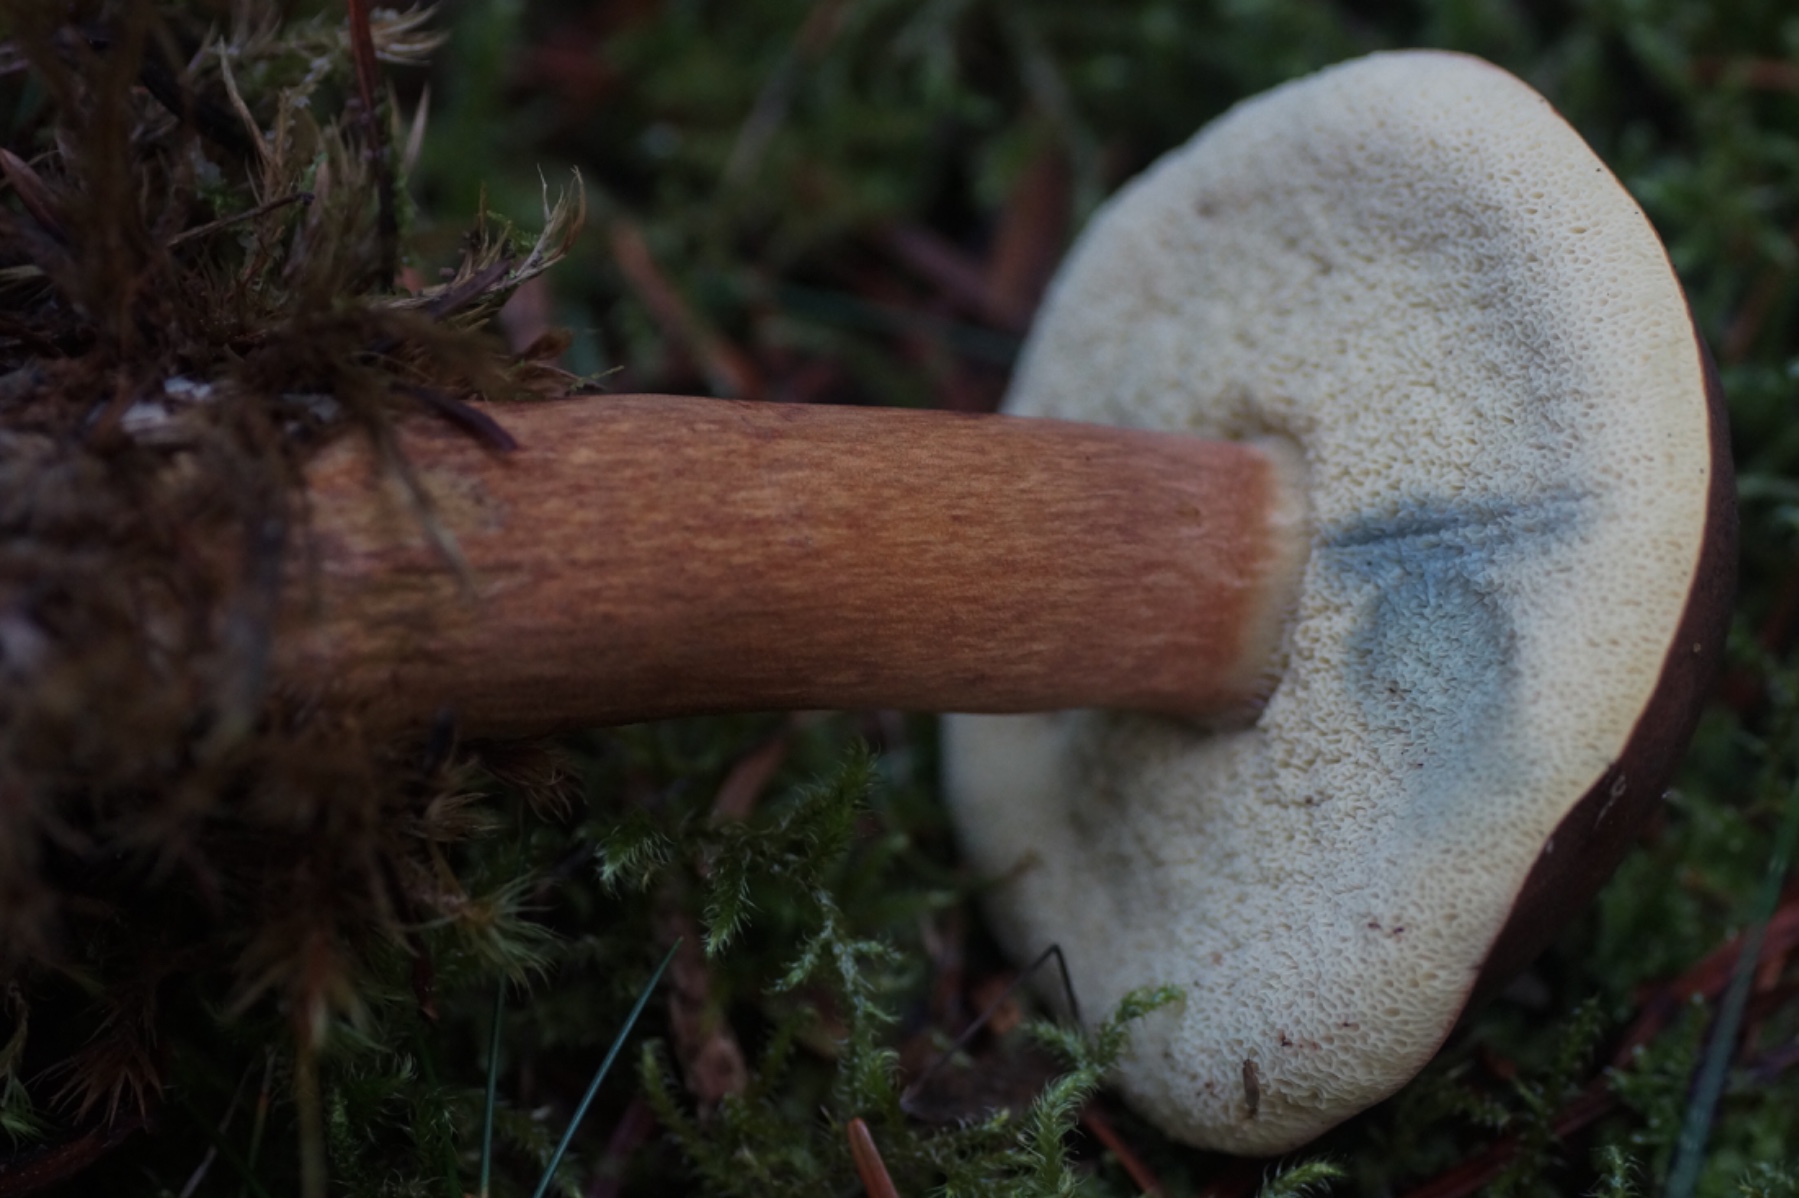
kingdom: Fungi
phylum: Basidiomycota
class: Agaricomycetes
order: Boletales
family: Boletaceae
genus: Imleria
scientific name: Imleria badia
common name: brunstokket rørhat
